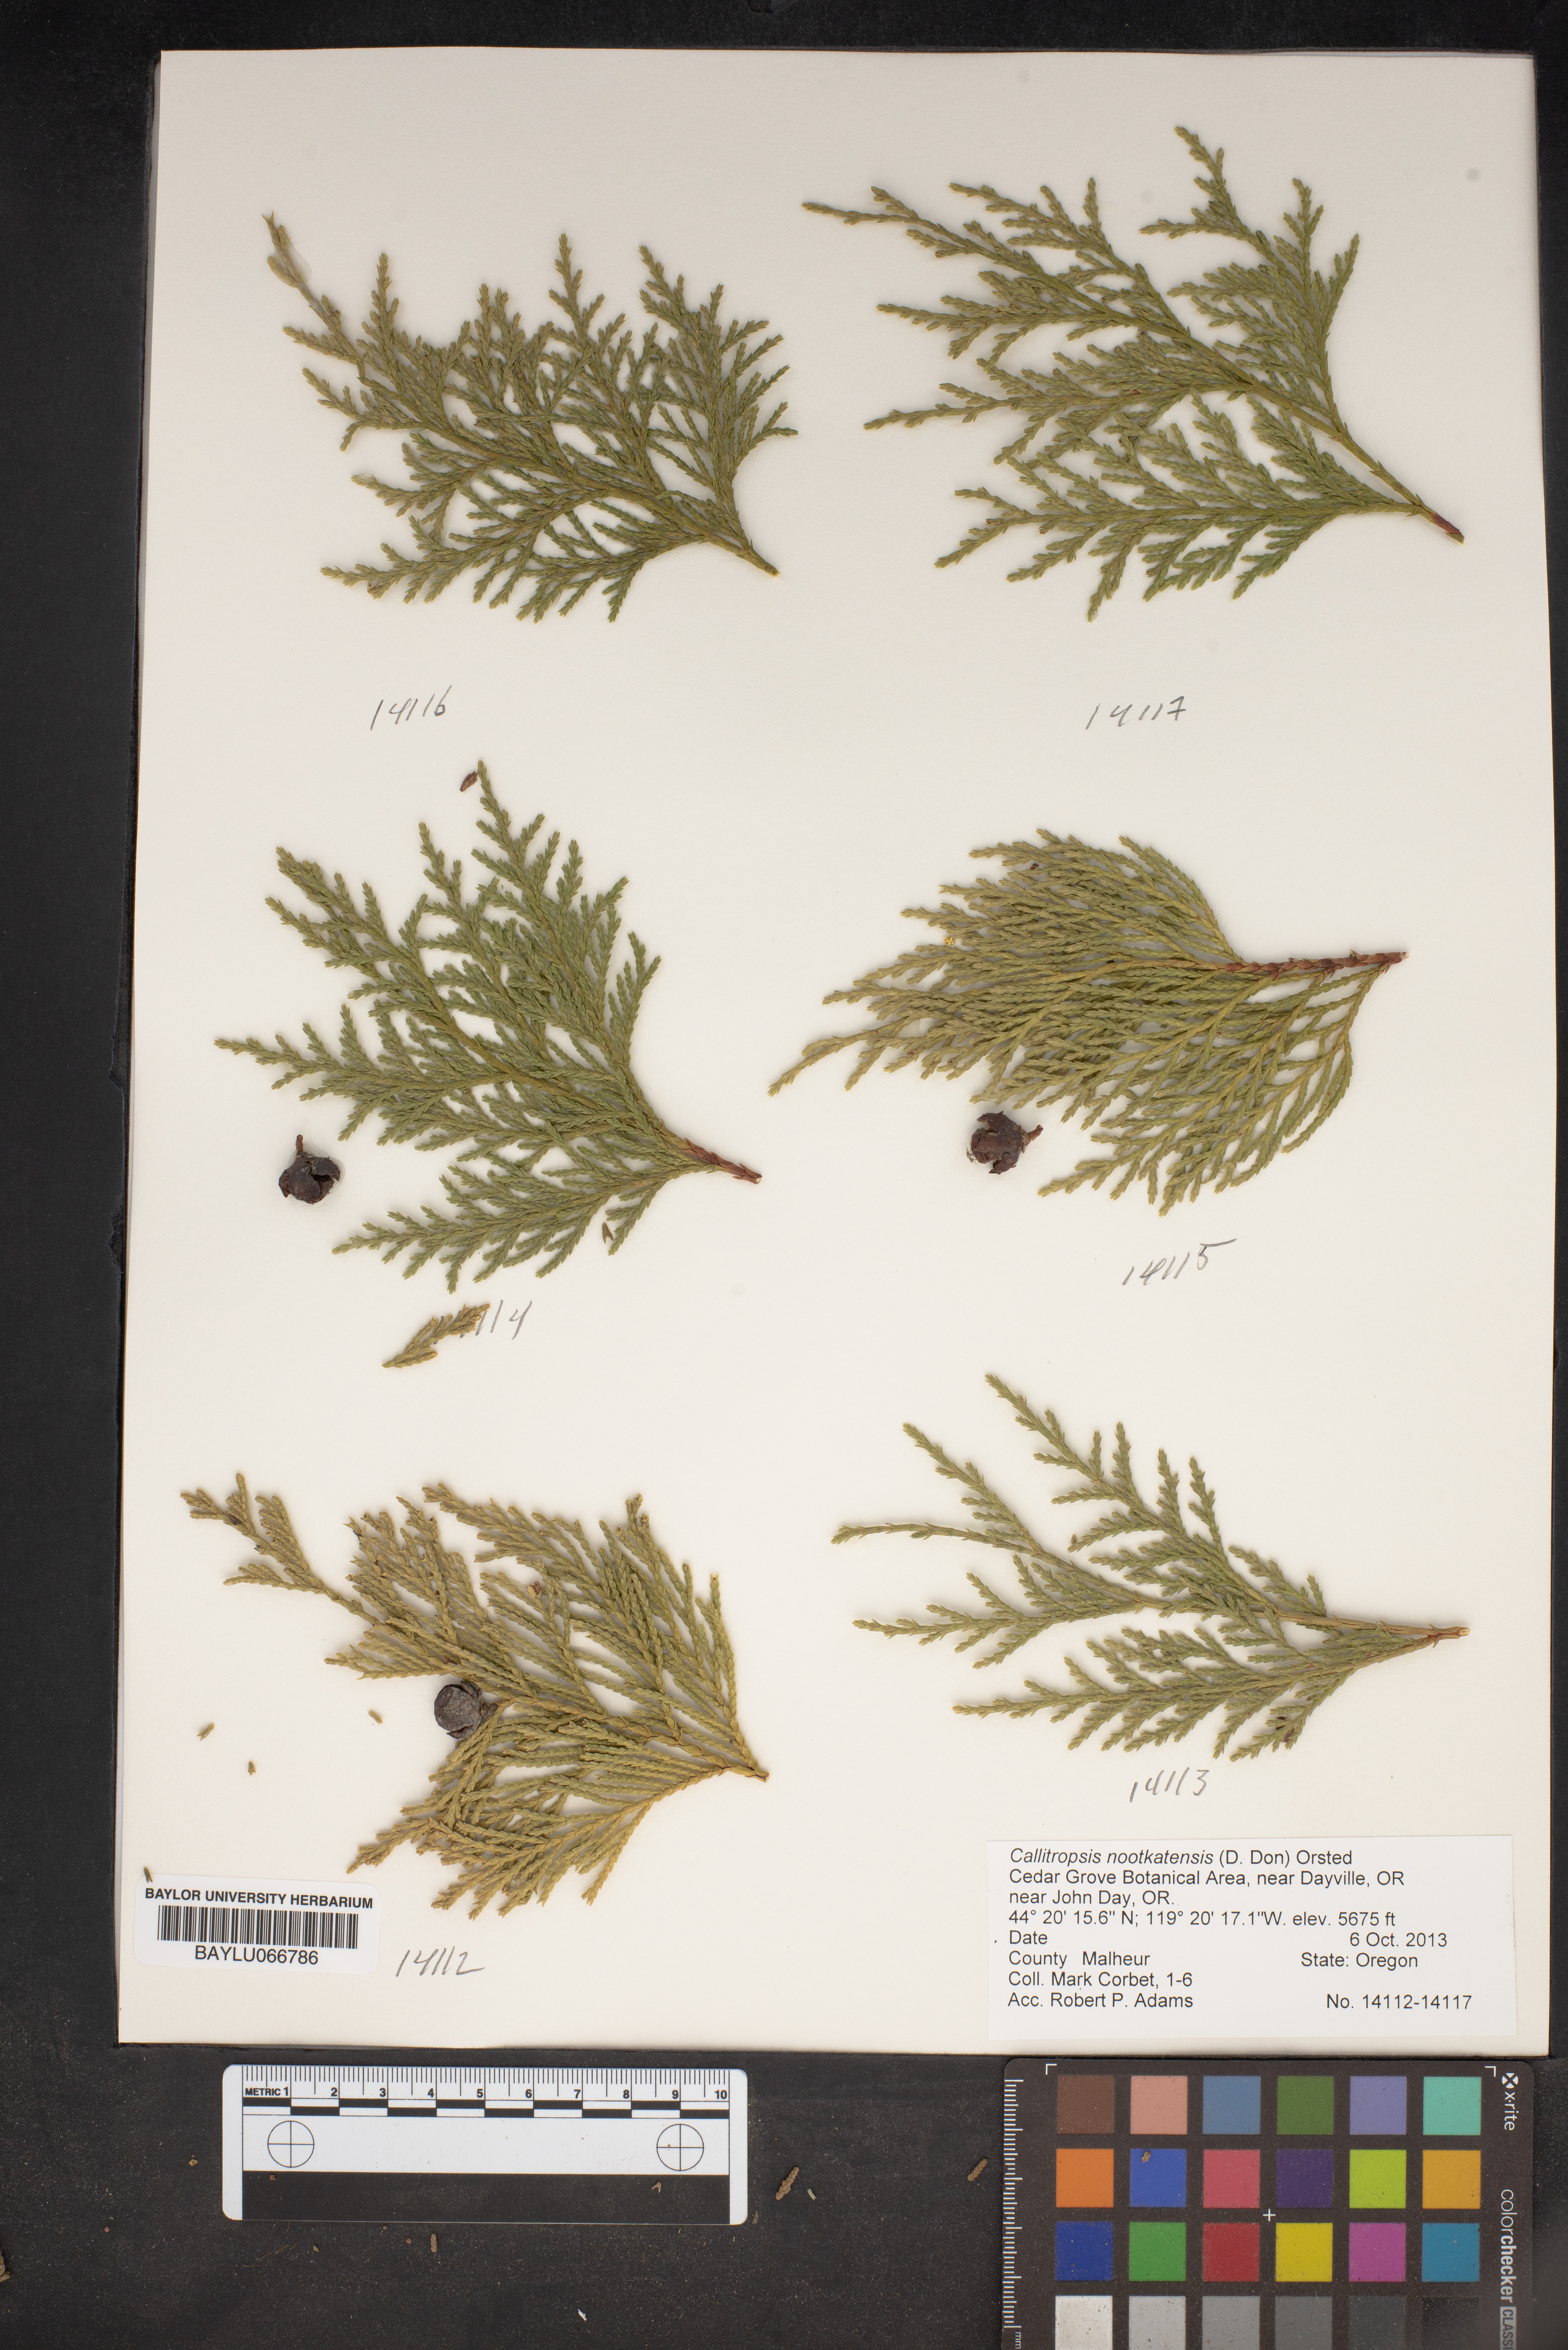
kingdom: Plantae
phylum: Tracheophyta
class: Pinopsida
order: Pinales
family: Cupressaceae
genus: Xanthocyparis
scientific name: Xanthocyparis nootkatensis
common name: Nootka cypress
